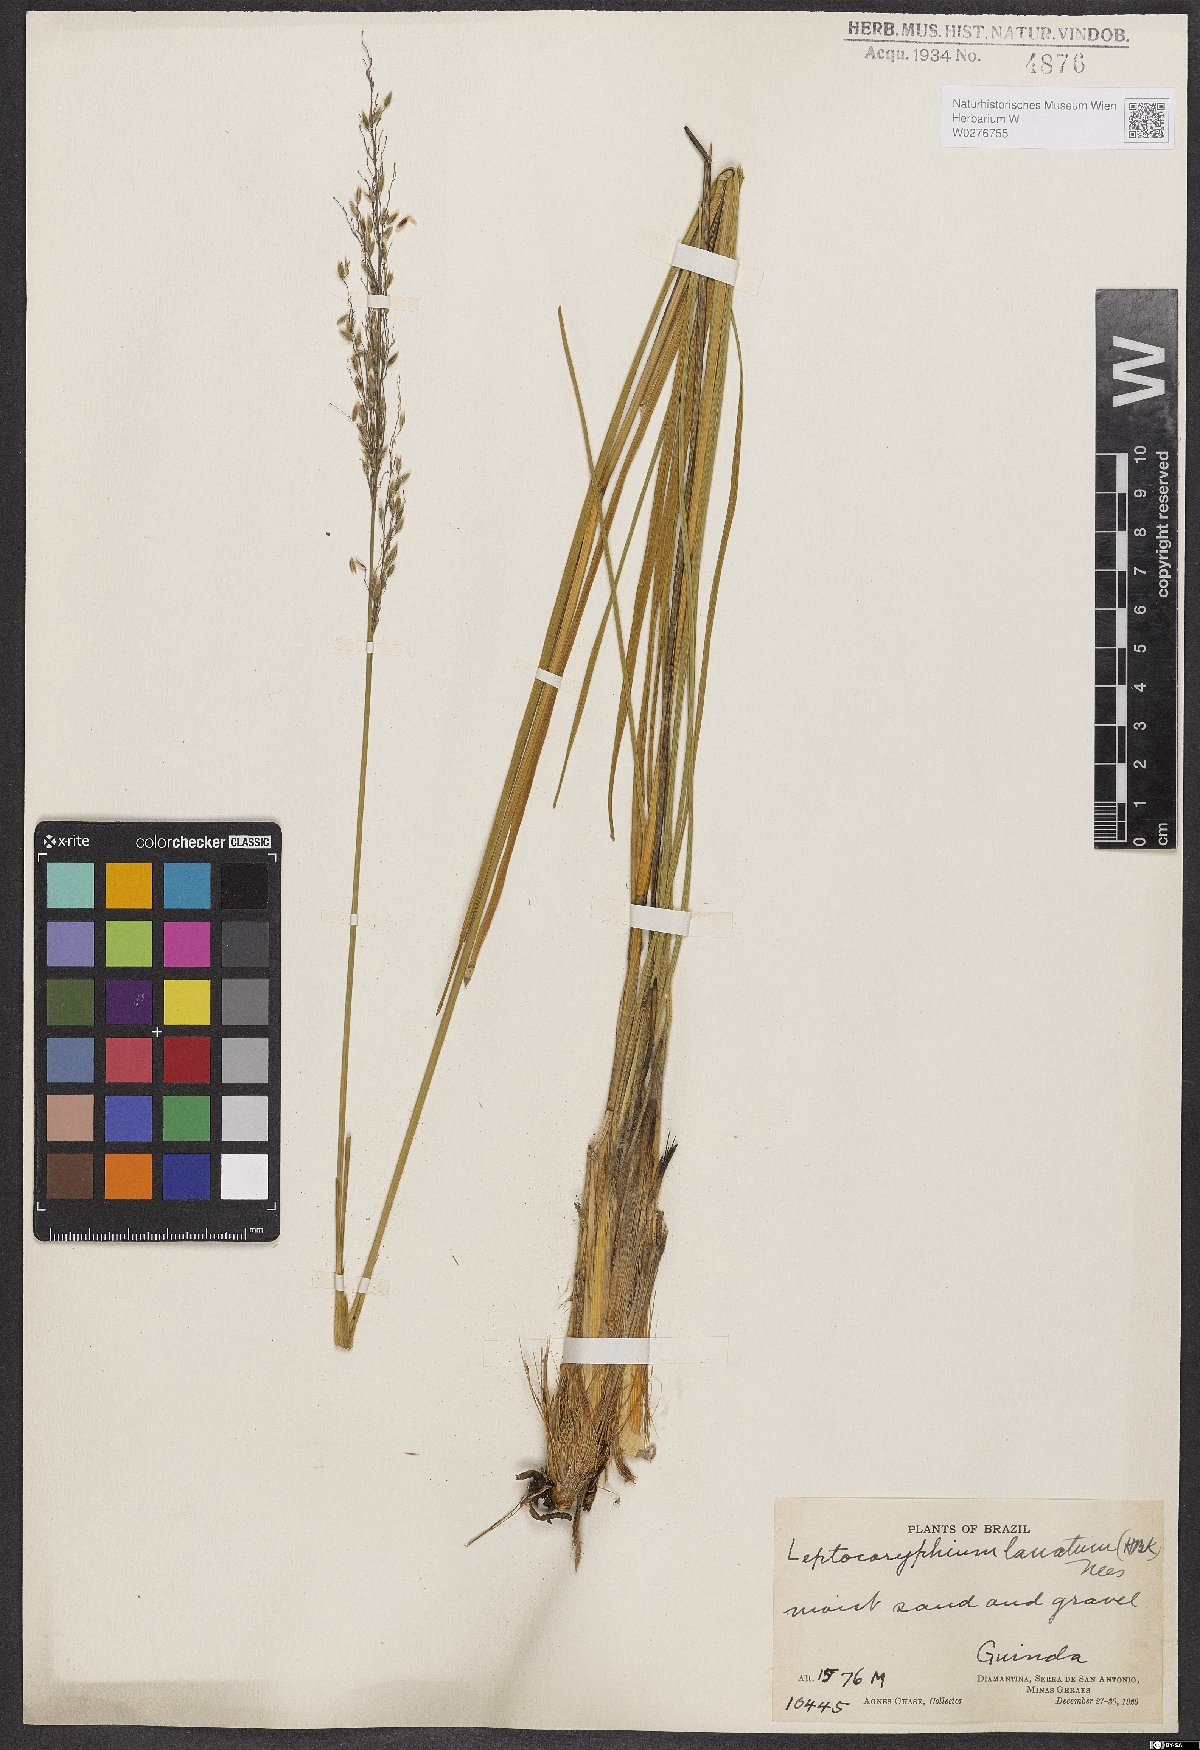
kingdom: Plantae
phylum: Tracheophyta
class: Liliopsida
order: Poales
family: Poaceae
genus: Anthaenantia
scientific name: Anthaenantia lanata
